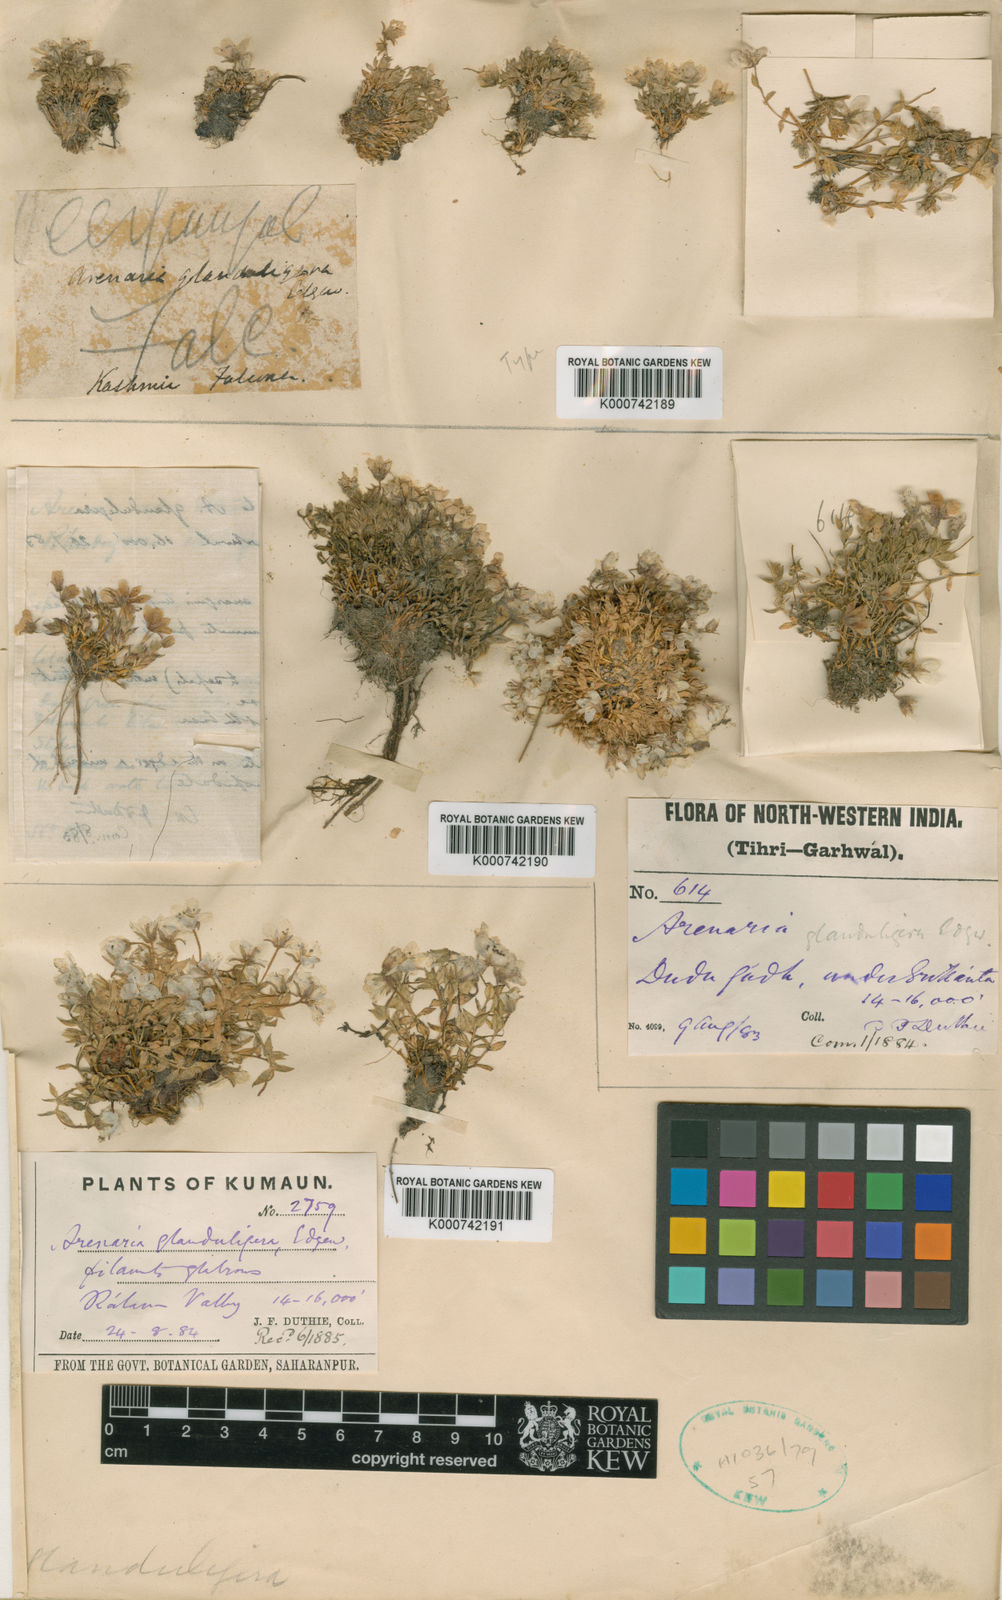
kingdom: Plantae
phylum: Tracheophyta
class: Magnoliopsida
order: Caryophyllales
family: Caryophyllaceae
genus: Shivparvatia
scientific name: Shivparvatia glanduligera
